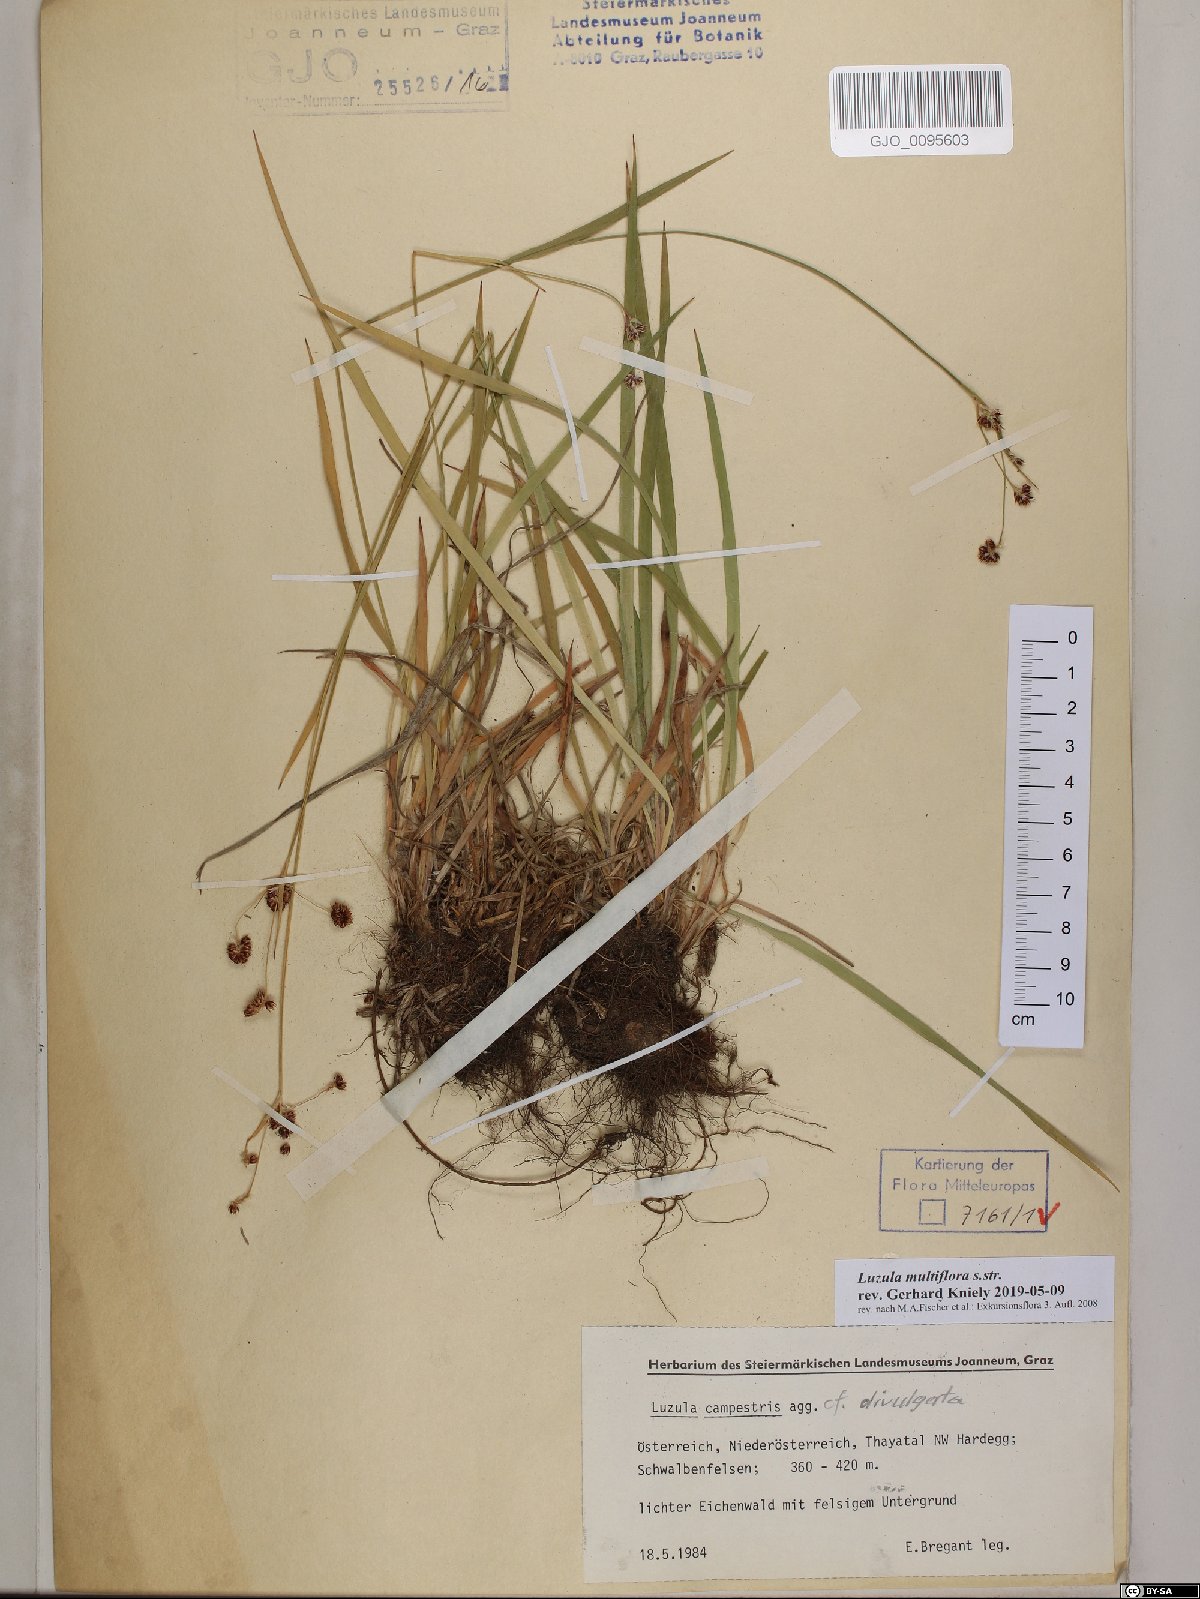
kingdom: Plantae
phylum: Tracheophyta
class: Liliopsida
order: Poales
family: Juncaceae
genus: Luzula
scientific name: Luzula multiflora
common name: Heath wood-rush
